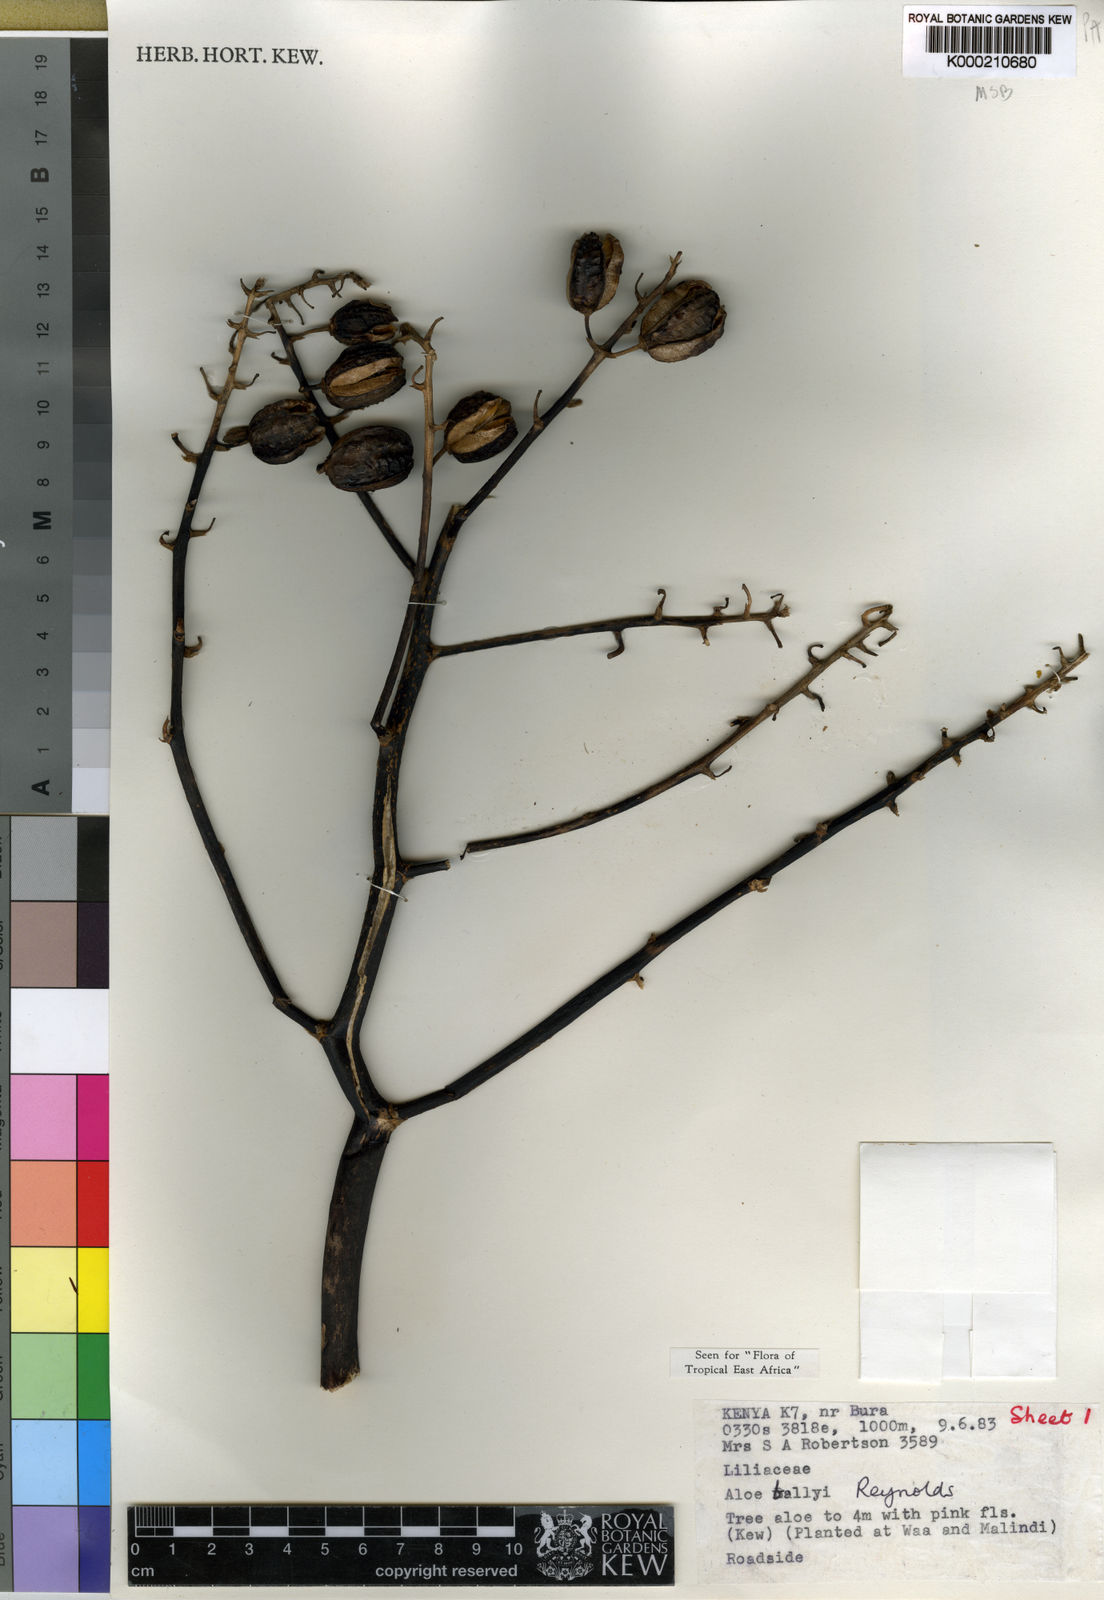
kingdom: Plantae
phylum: Tracheophyta
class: Liliopsida
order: Asparagales
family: Asphodelaceae
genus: Aloe
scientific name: Aloe ballyi
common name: Rat aloe
